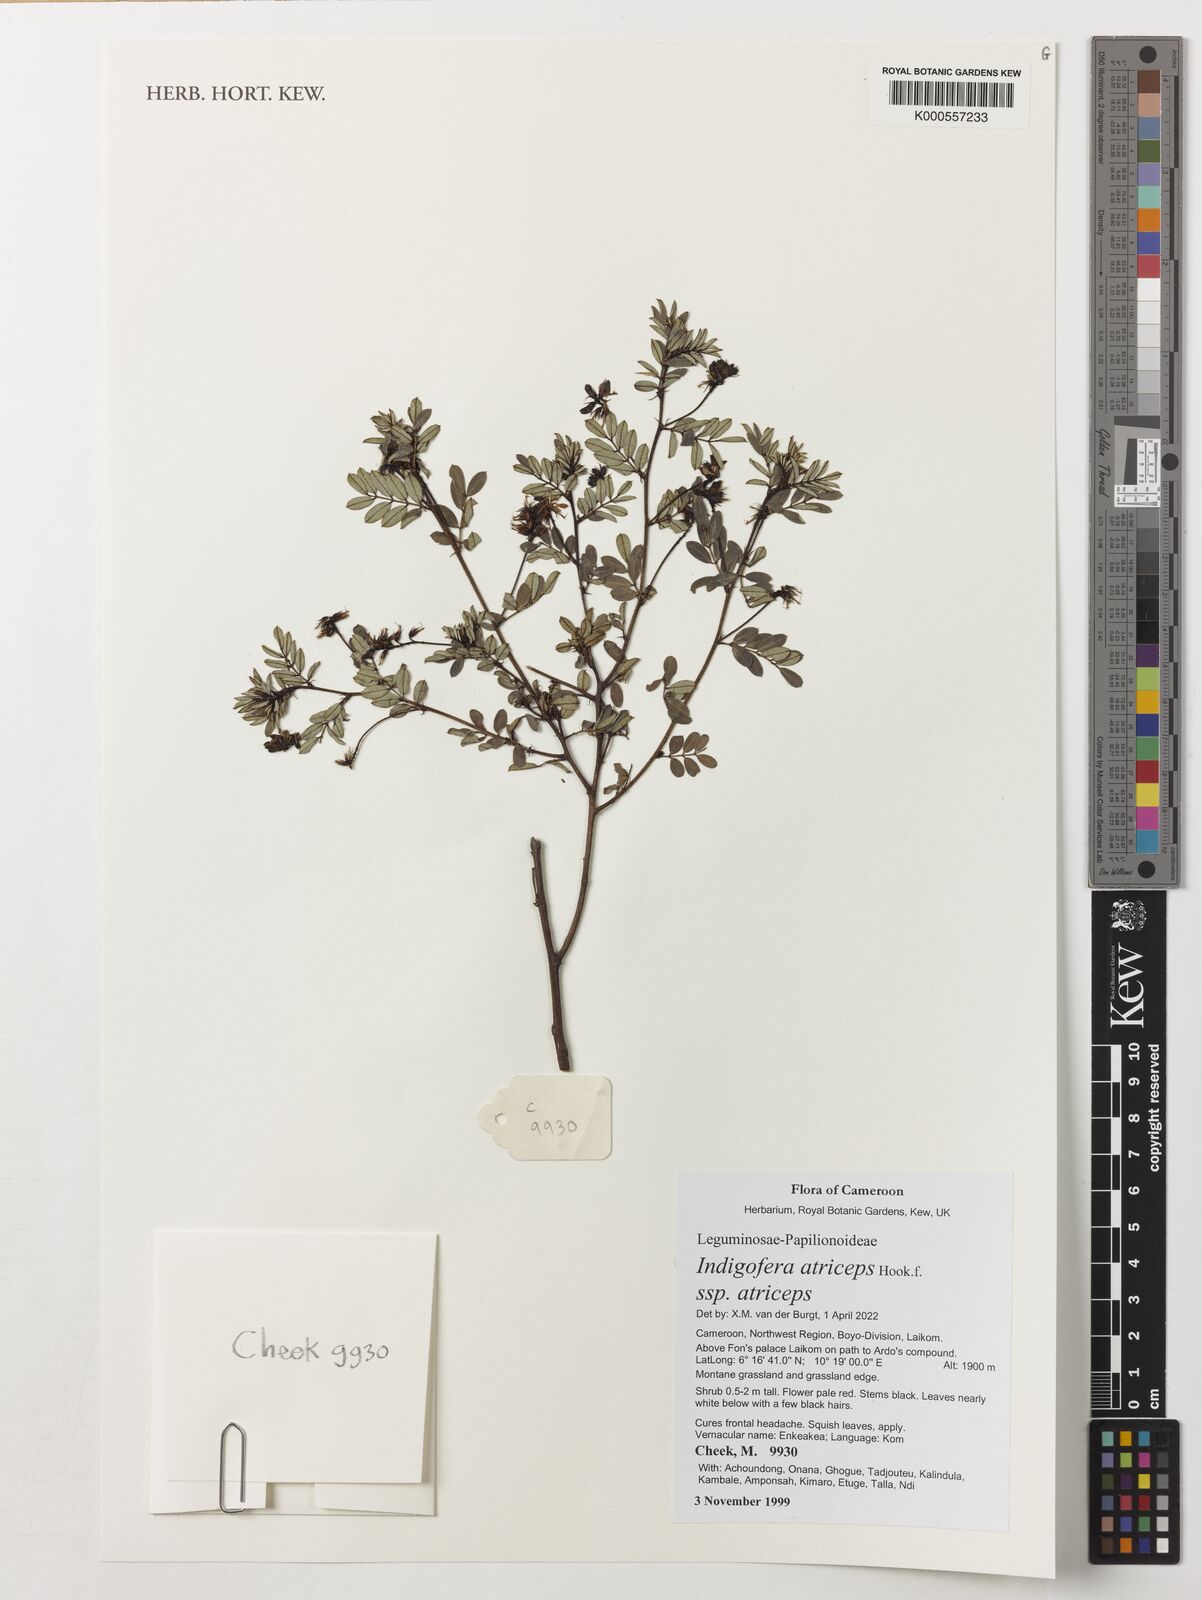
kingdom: Plantae
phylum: Tracheophyta
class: Magnoliopsida
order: Fabales
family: Fabaceae
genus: Indigofera
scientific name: Indigofera atriceps
